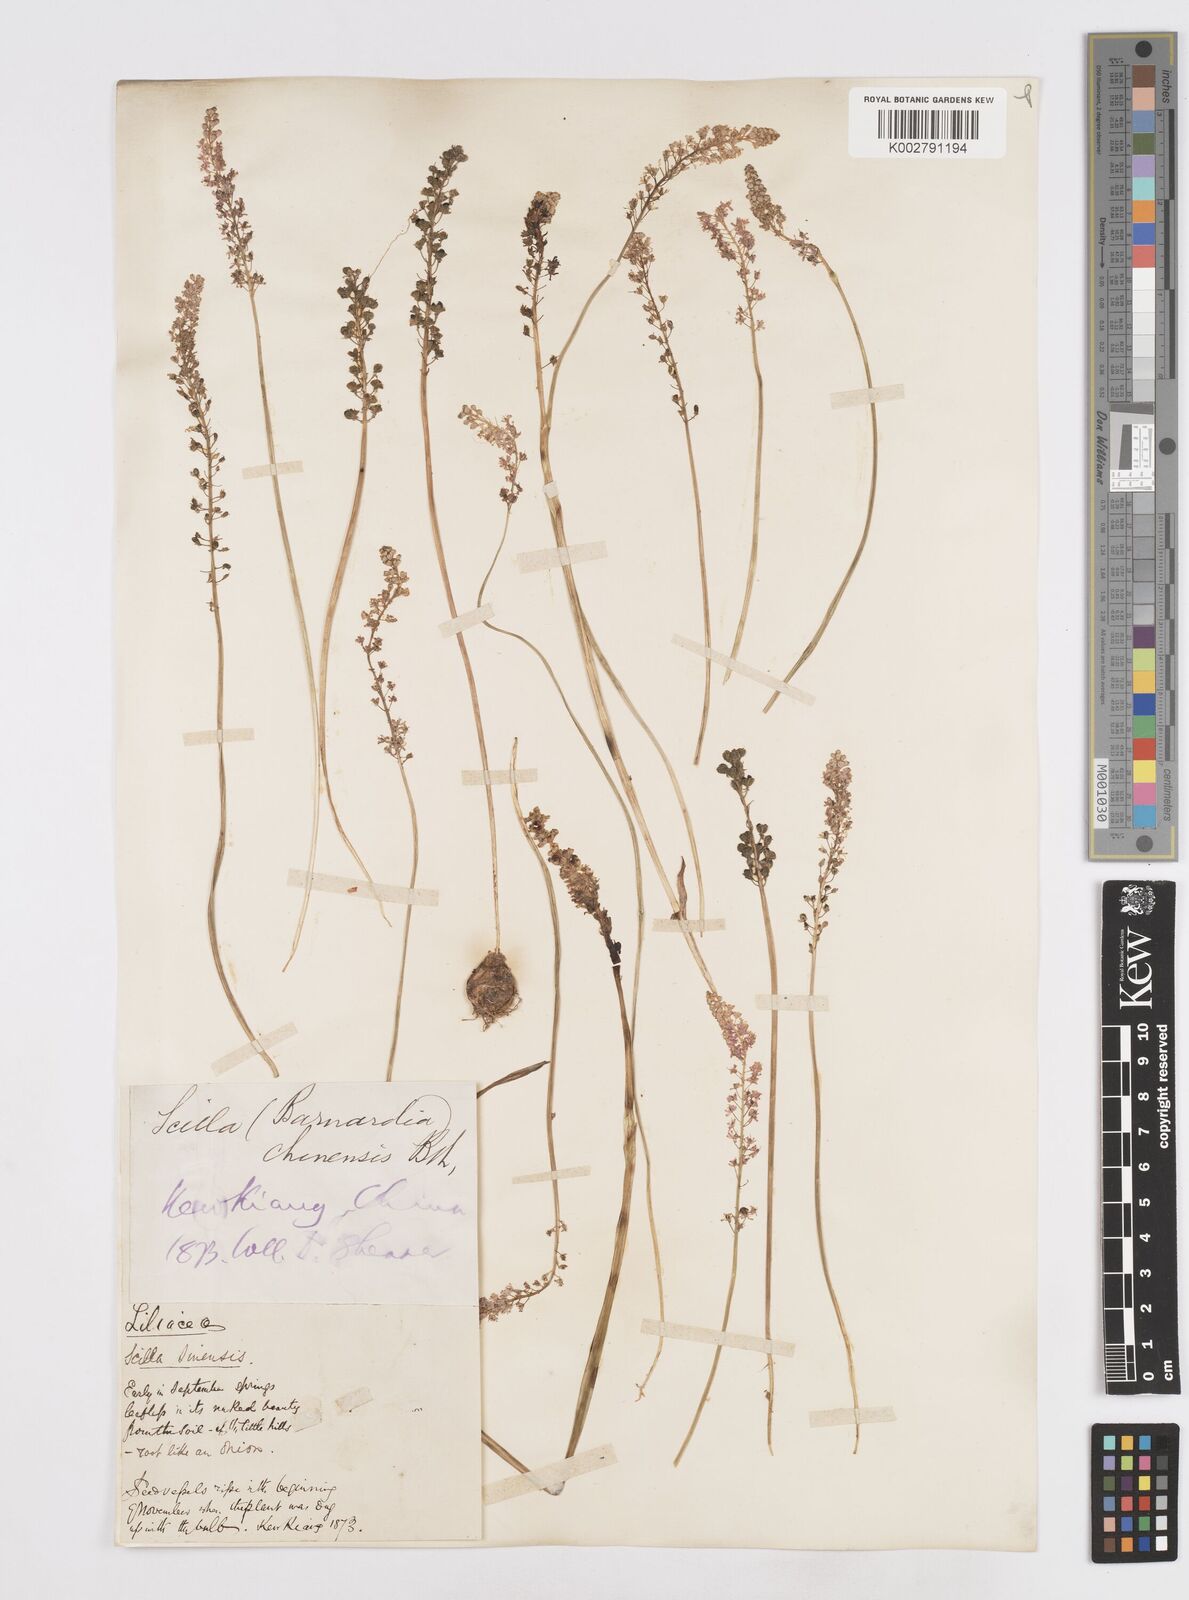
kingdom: Plantae
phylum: Tracheophyta
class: Liliopsida
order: Asparagales
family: Asparagaceae
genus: Barnardia
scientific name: Barnardia japonica
